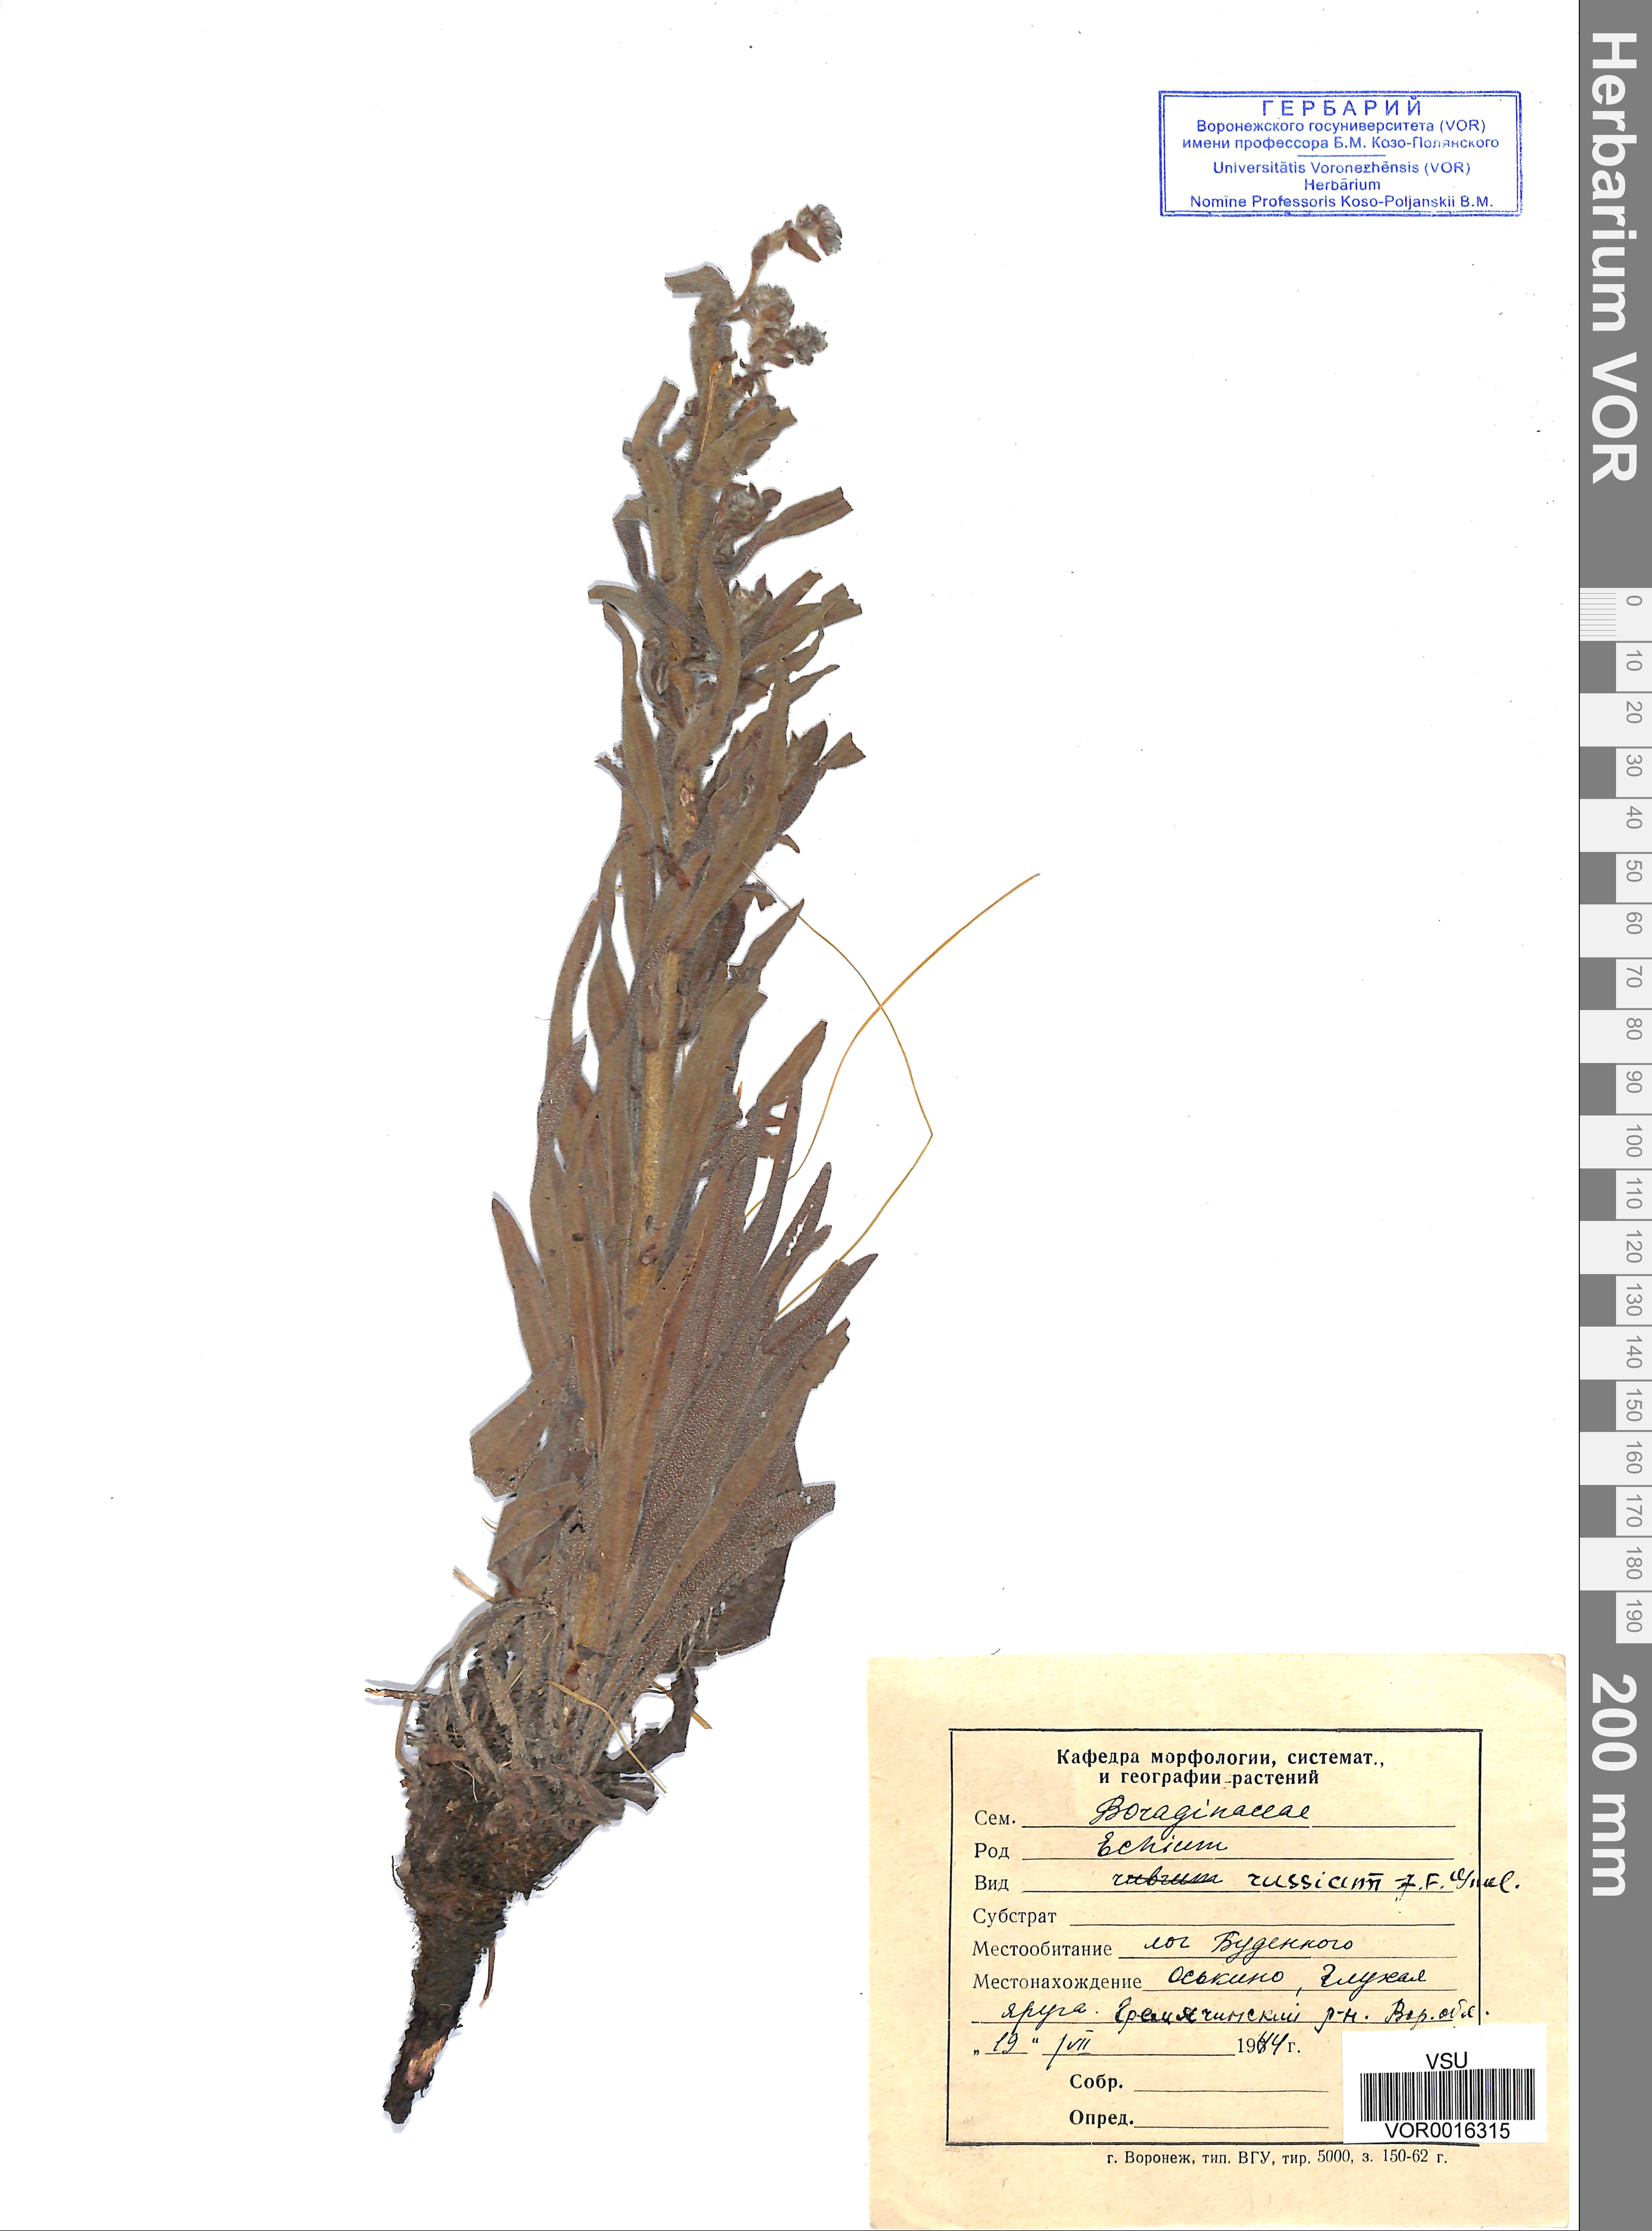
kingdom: Plantae
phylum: Tracheophyta
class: Magnoliopsida
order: Boraginales
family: Boraginaceae
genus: Pontechium
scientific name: Pontechium maculatum
